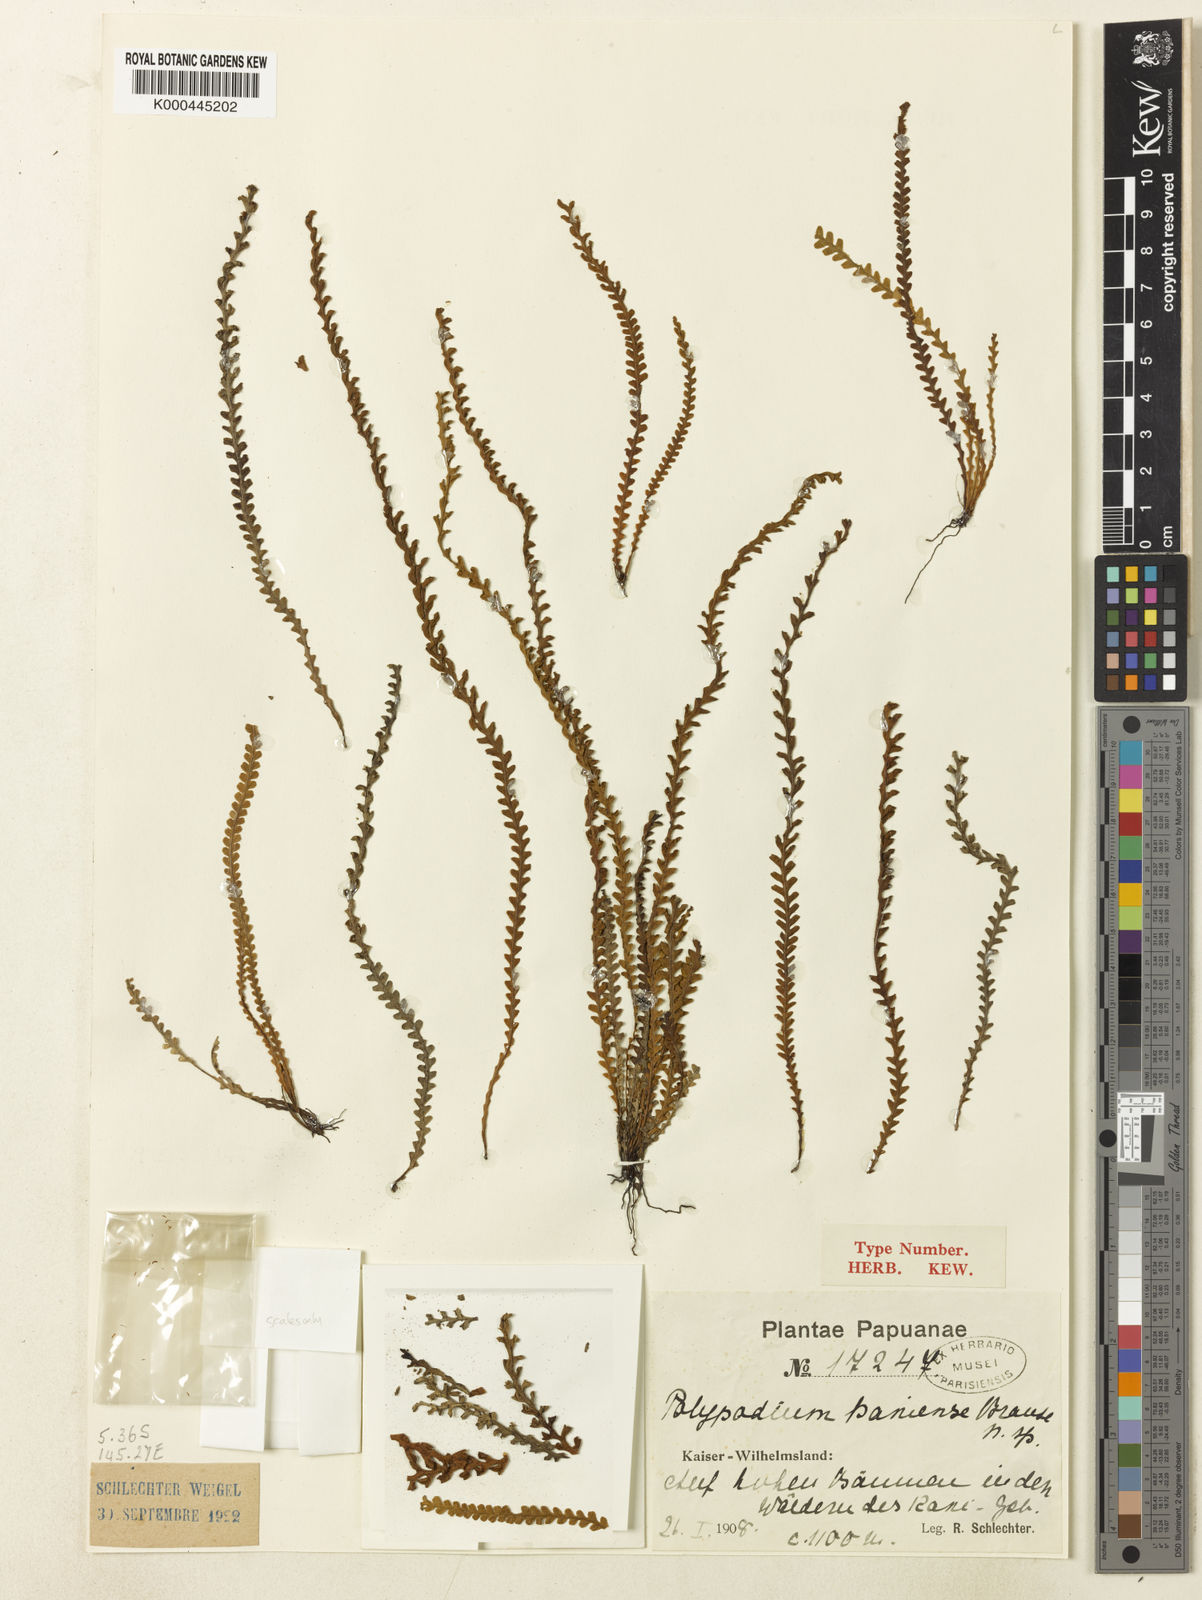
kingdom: Plantae
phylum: Tracheophyta
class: Polypodiopsida
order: Polypodiales
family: Polypodiaceae
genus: Acrosorus
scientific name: Acrosorus reineckei
